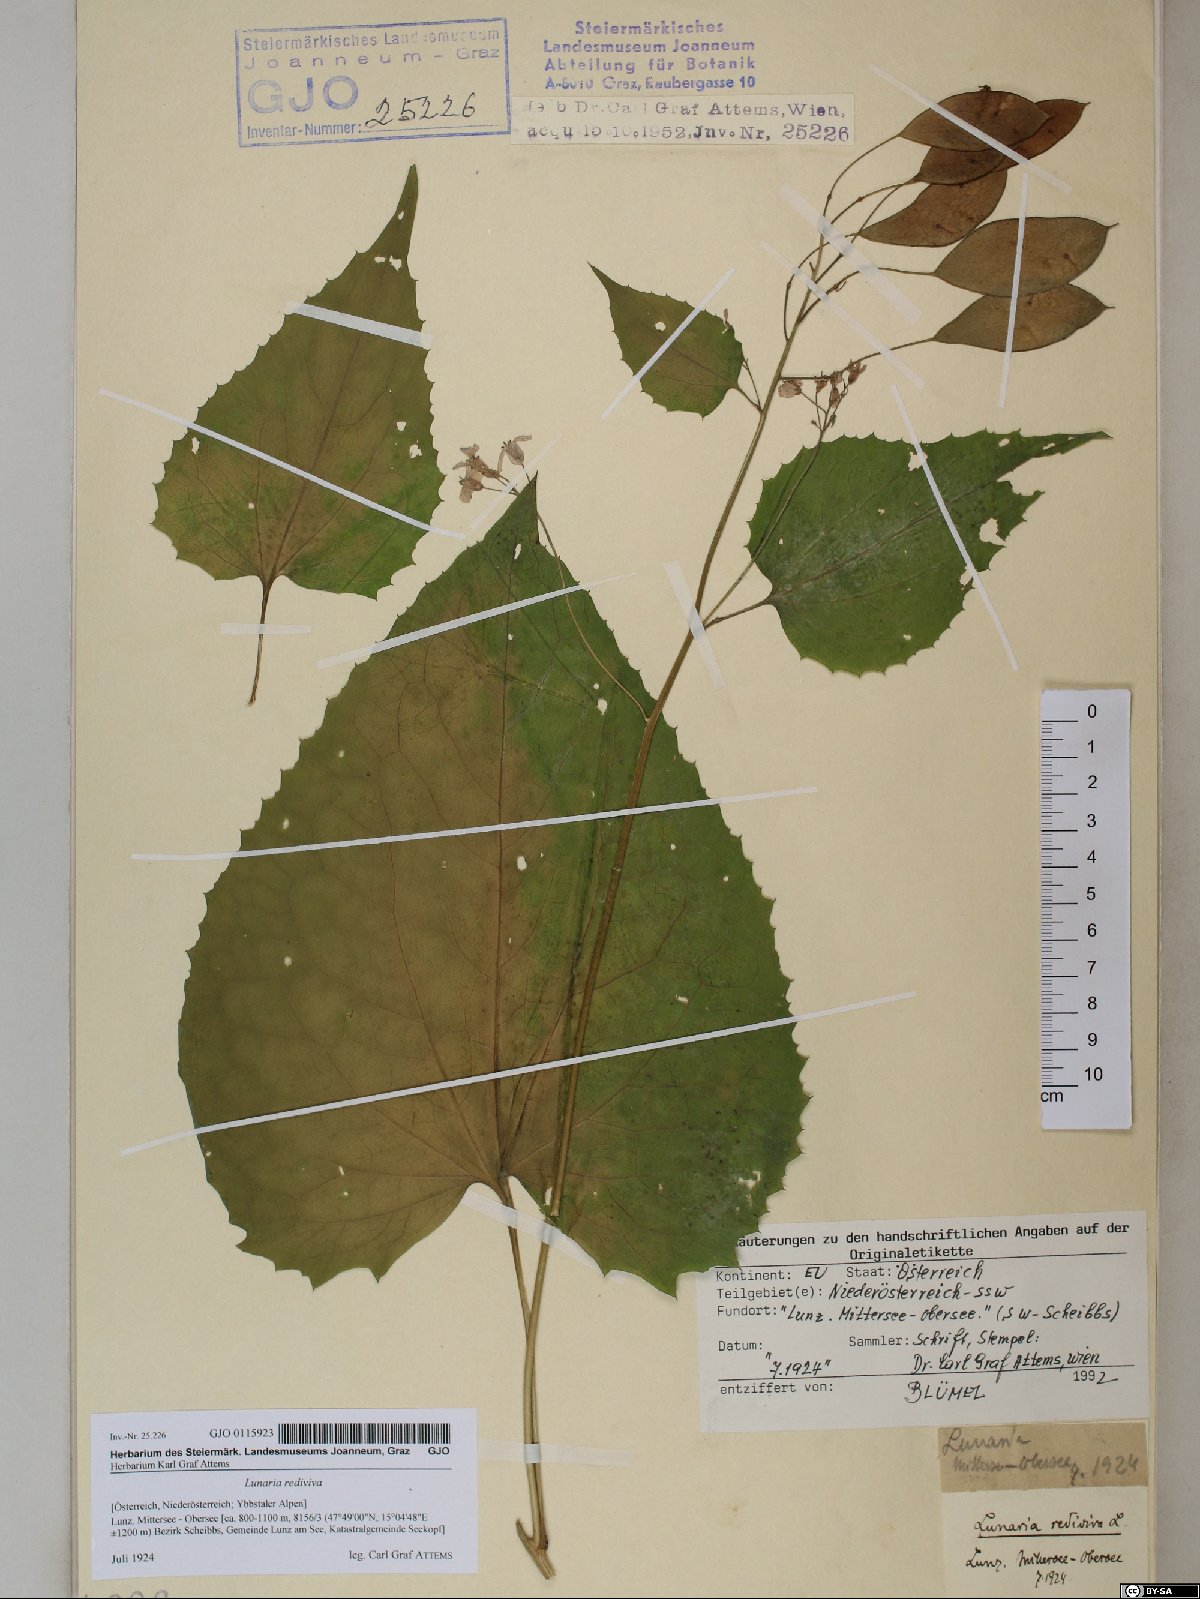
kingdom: Plantae
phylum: Tracheophyta
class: Magnoliopsida
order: Brassicales
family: Brassicaceae
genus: Lunaria
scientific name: Lunaria rediviva
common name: Perennial honesty
